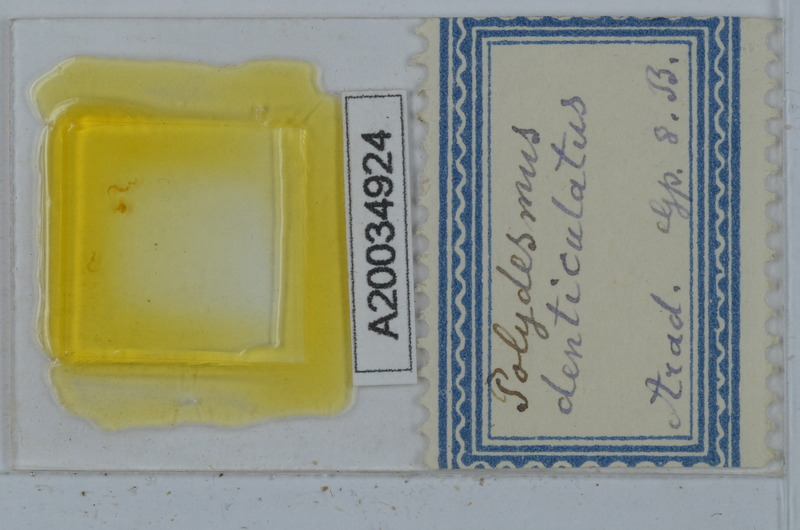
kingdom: Animalia
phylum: Arthropoda
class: Diplopoda
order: Polydesmida
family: Polydesmidae
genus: Polydesmus
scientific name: Polydesmus denticulatus
